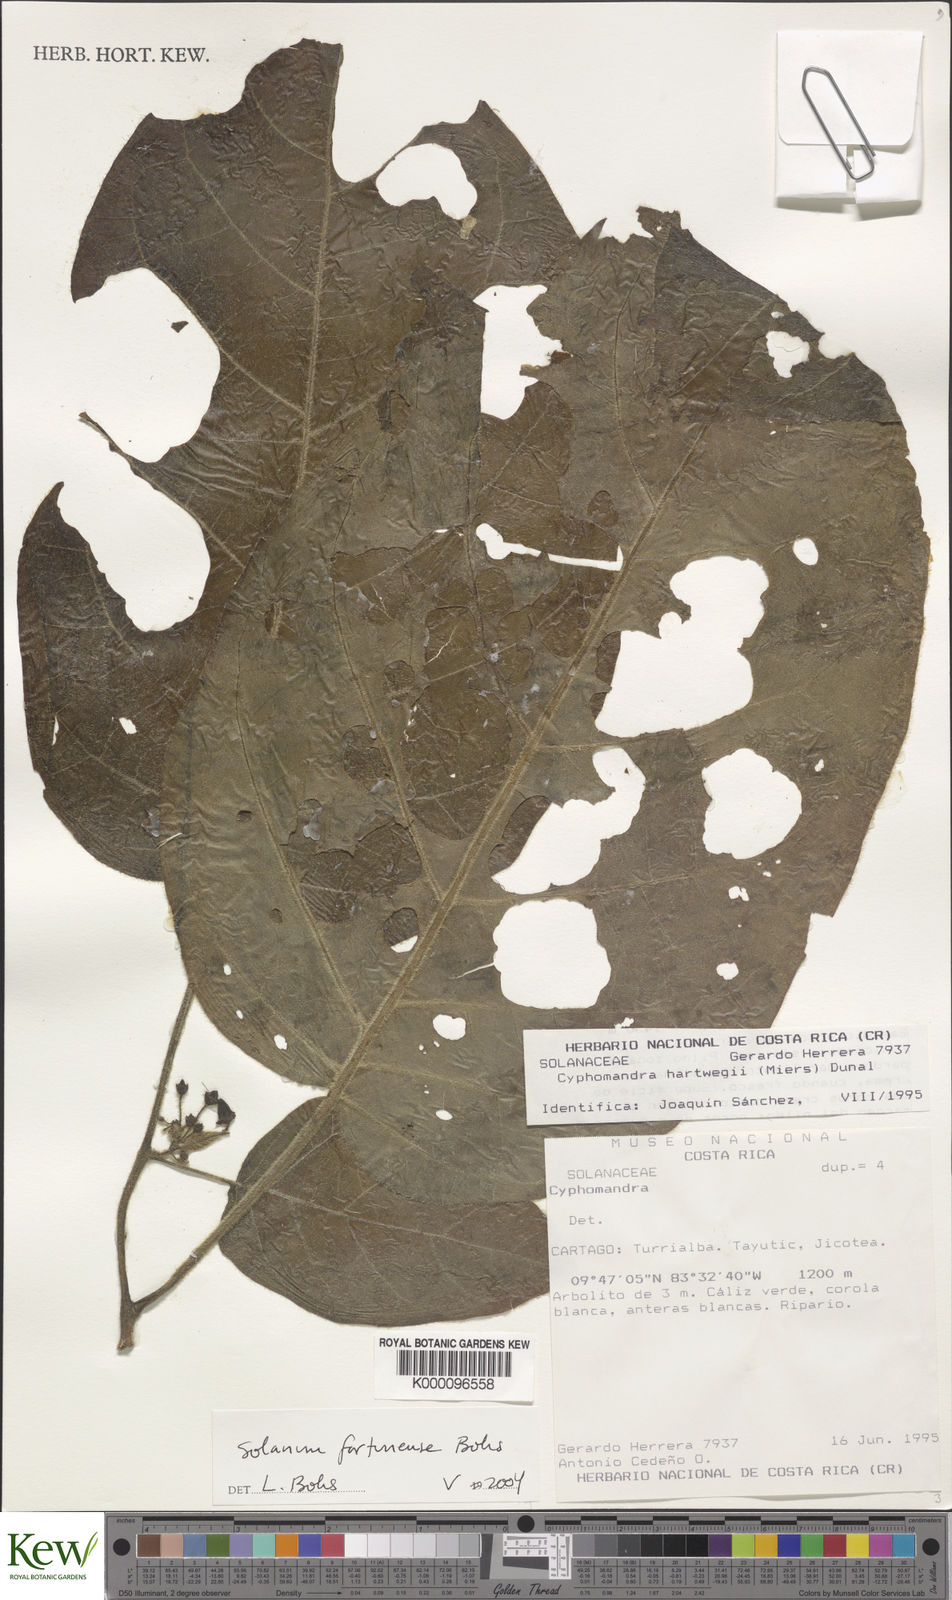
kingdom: Plantae
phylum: Tracheophyta
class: Magnoliopsida
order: Solanales
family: Solanaceae
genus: Solanum
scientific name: Solanum fortunense
